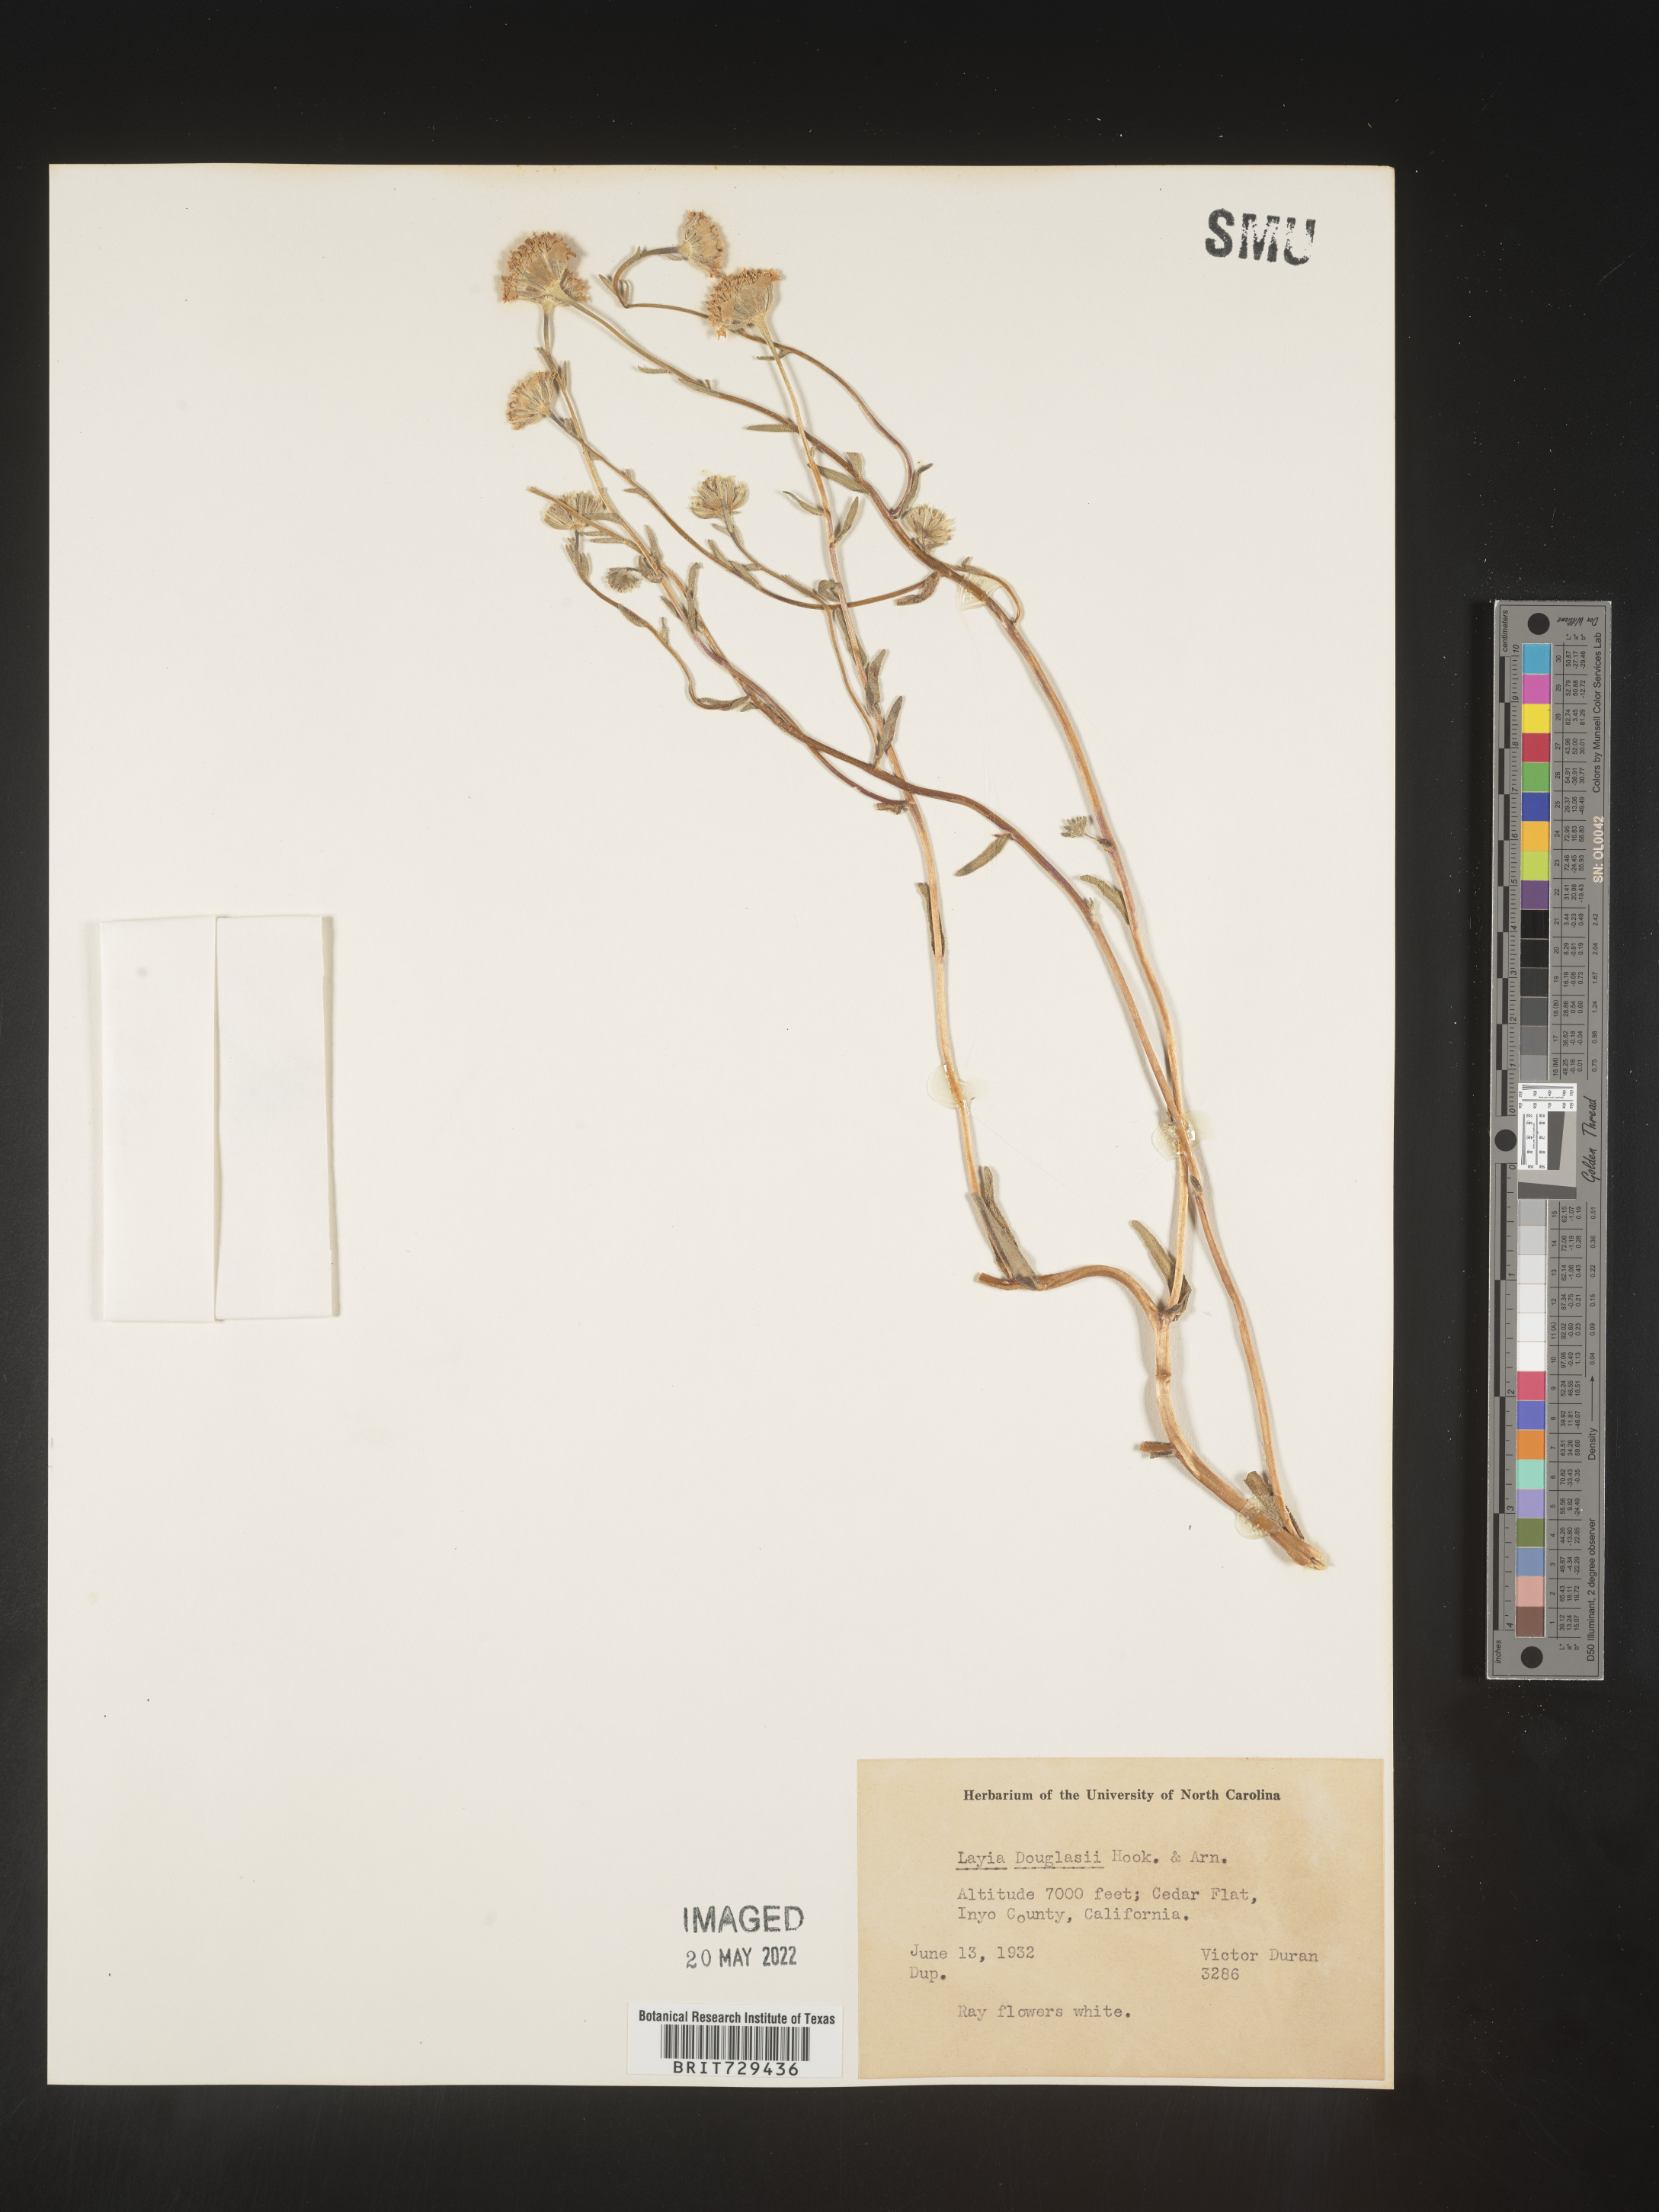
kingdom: Plantae
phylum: Tracheophyta
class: Magnoliopsida
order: Asterales
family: Asteraceae
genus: Layia
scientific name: Layia
